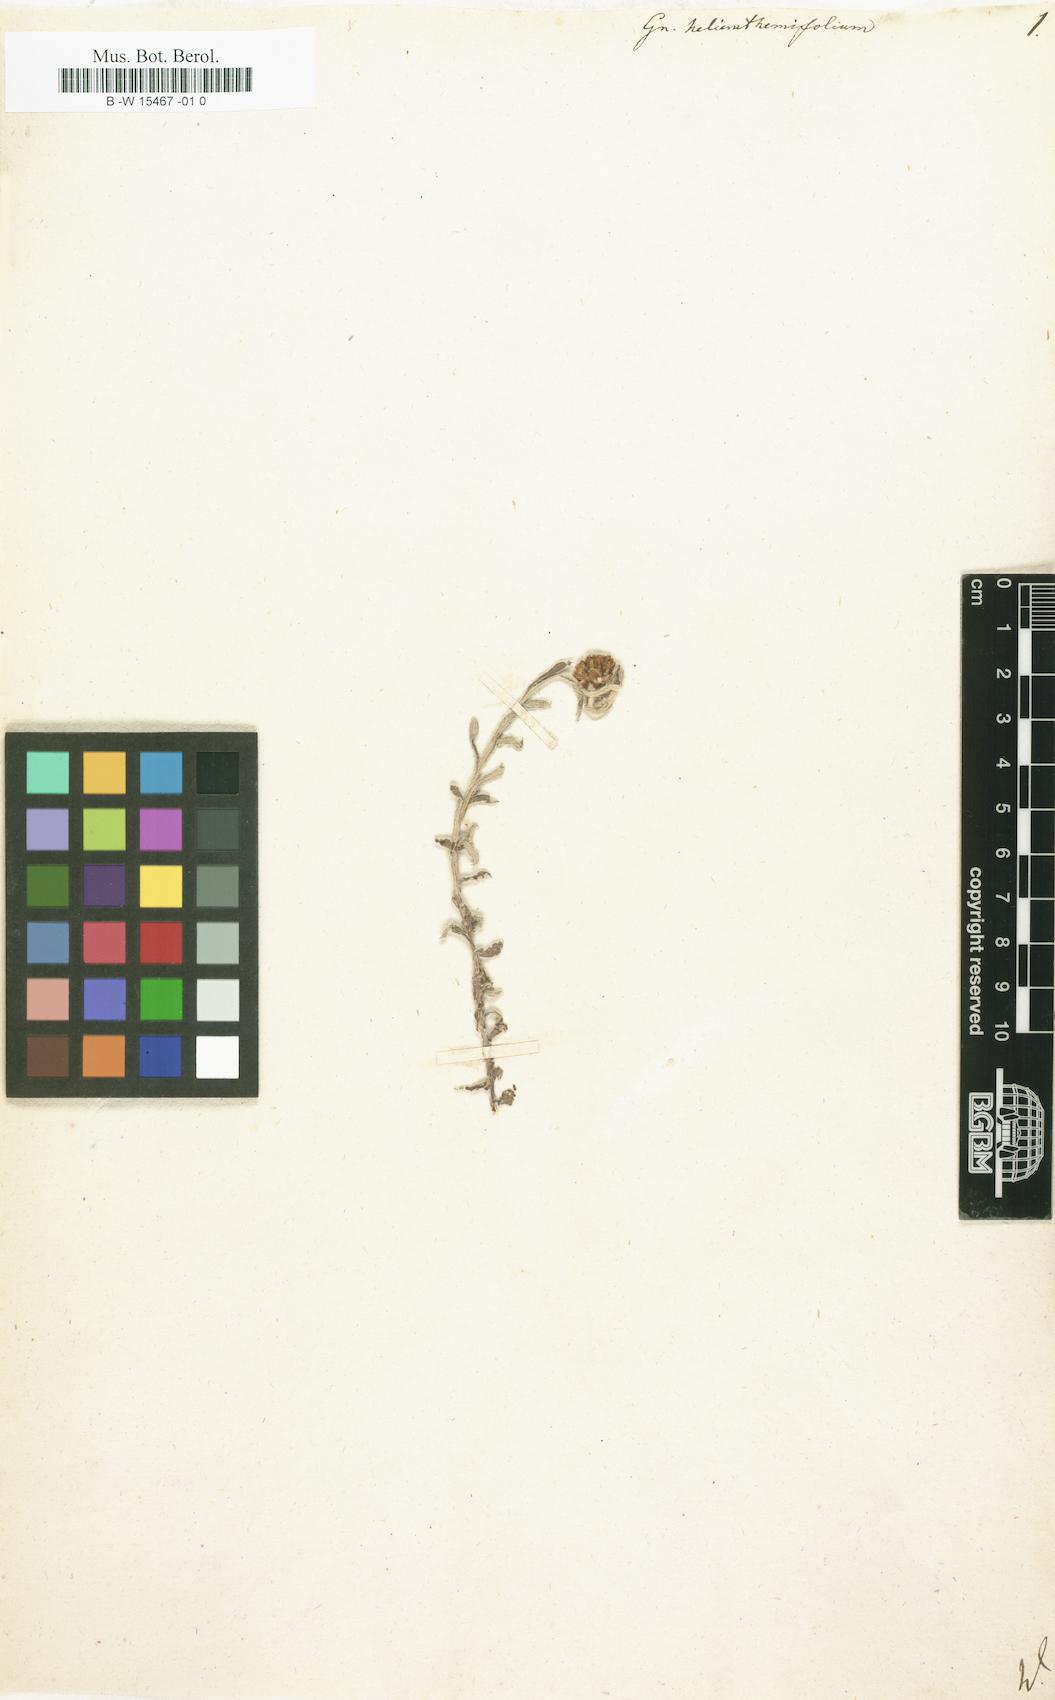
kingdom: Plantae
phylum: Tracheophyta
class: Magnoliopsida
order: Asterales
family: Asteraceae
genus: Helichrysum
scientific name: Helichrysum
